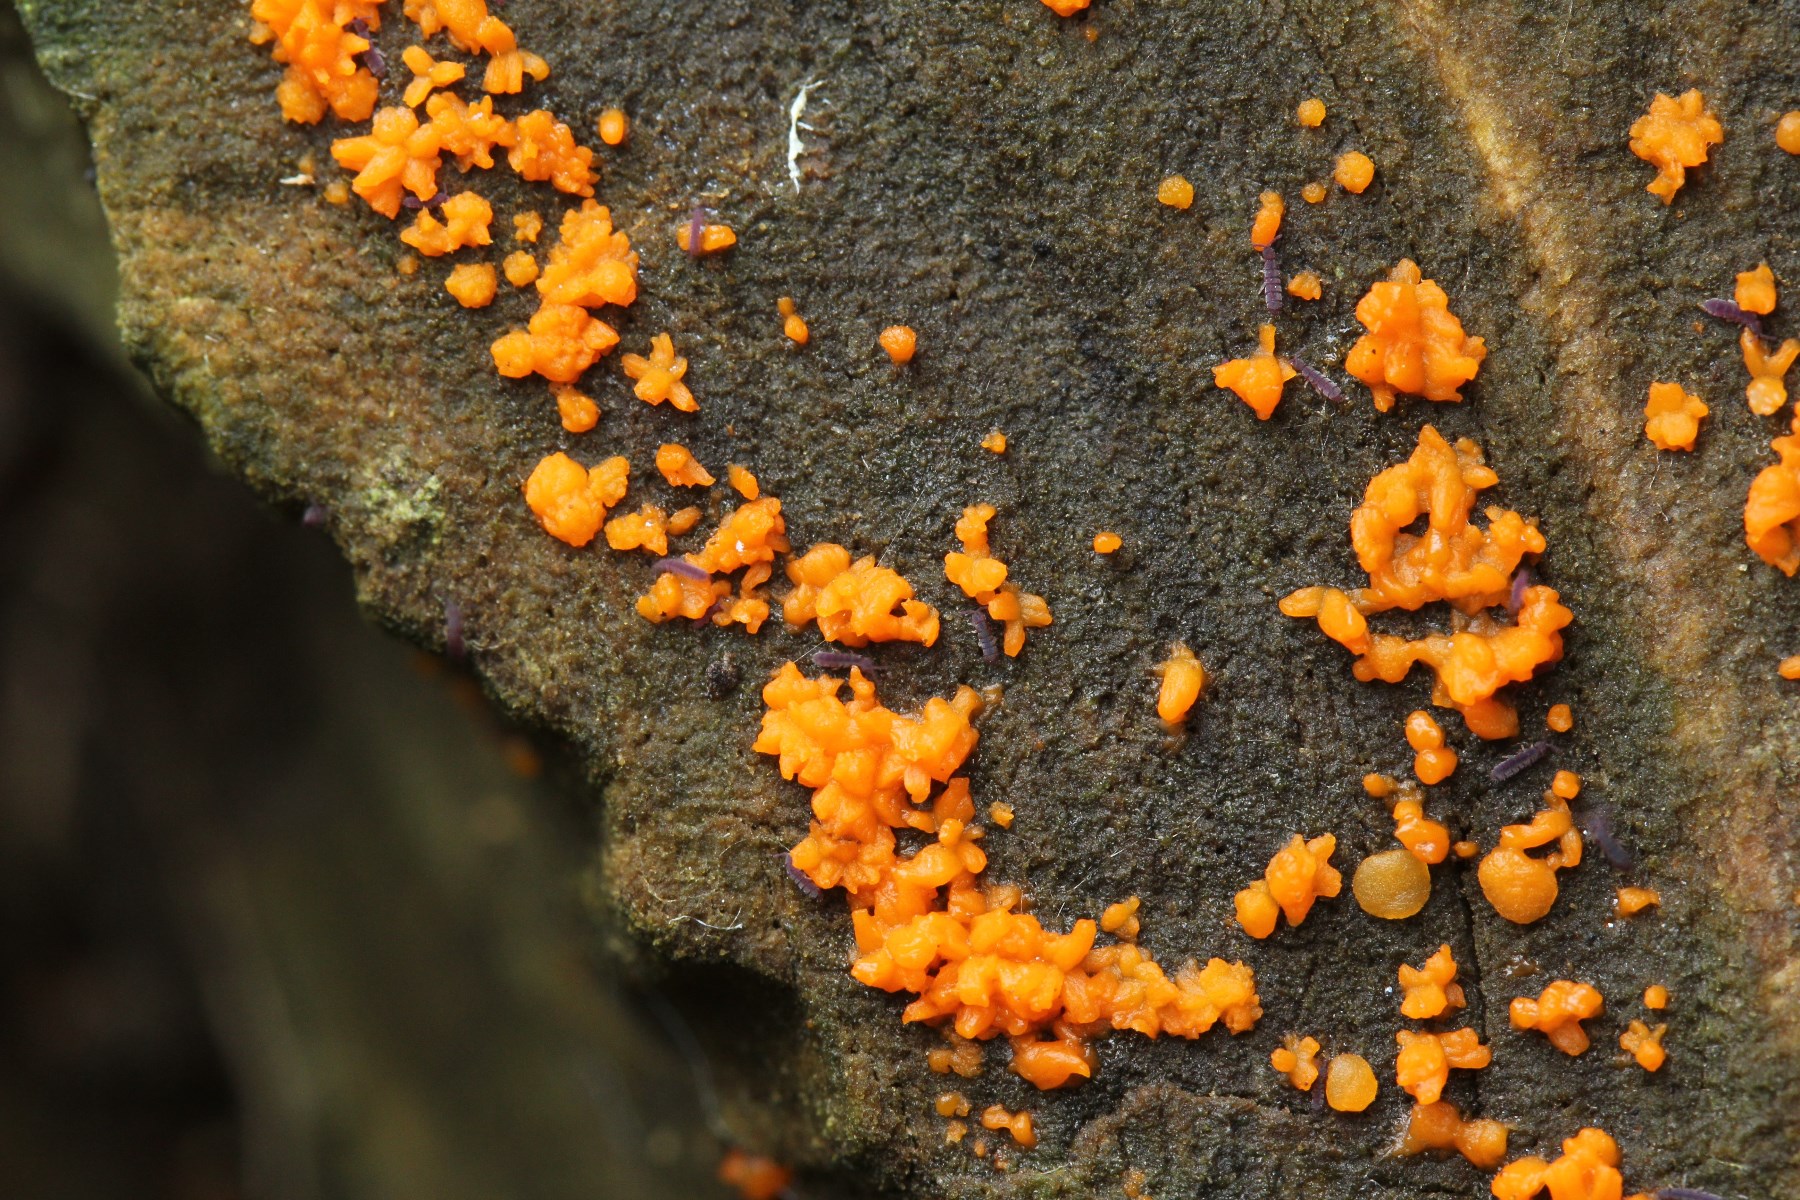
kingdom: Fungi
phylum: Basidiomycota
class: Dacrymycetes
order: Dacrymycetales
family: Dacrymycetaceae
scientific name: Dacrymycetaceae
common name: tåresvampfamilien
